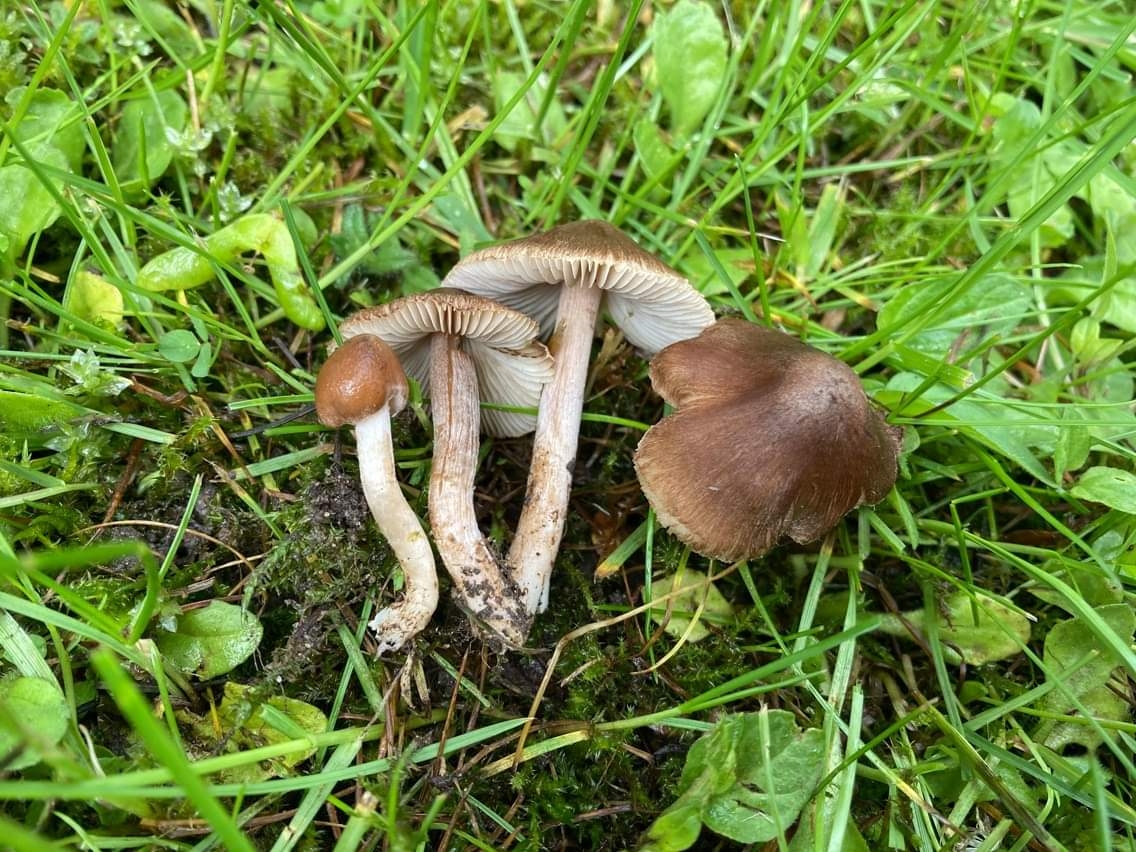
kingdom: Fungi
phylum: Basidiomycota
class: Agaricomycetes
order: Agaricales
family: Inocybaceae
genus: Inocybe
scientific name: Inocybe derbschii
